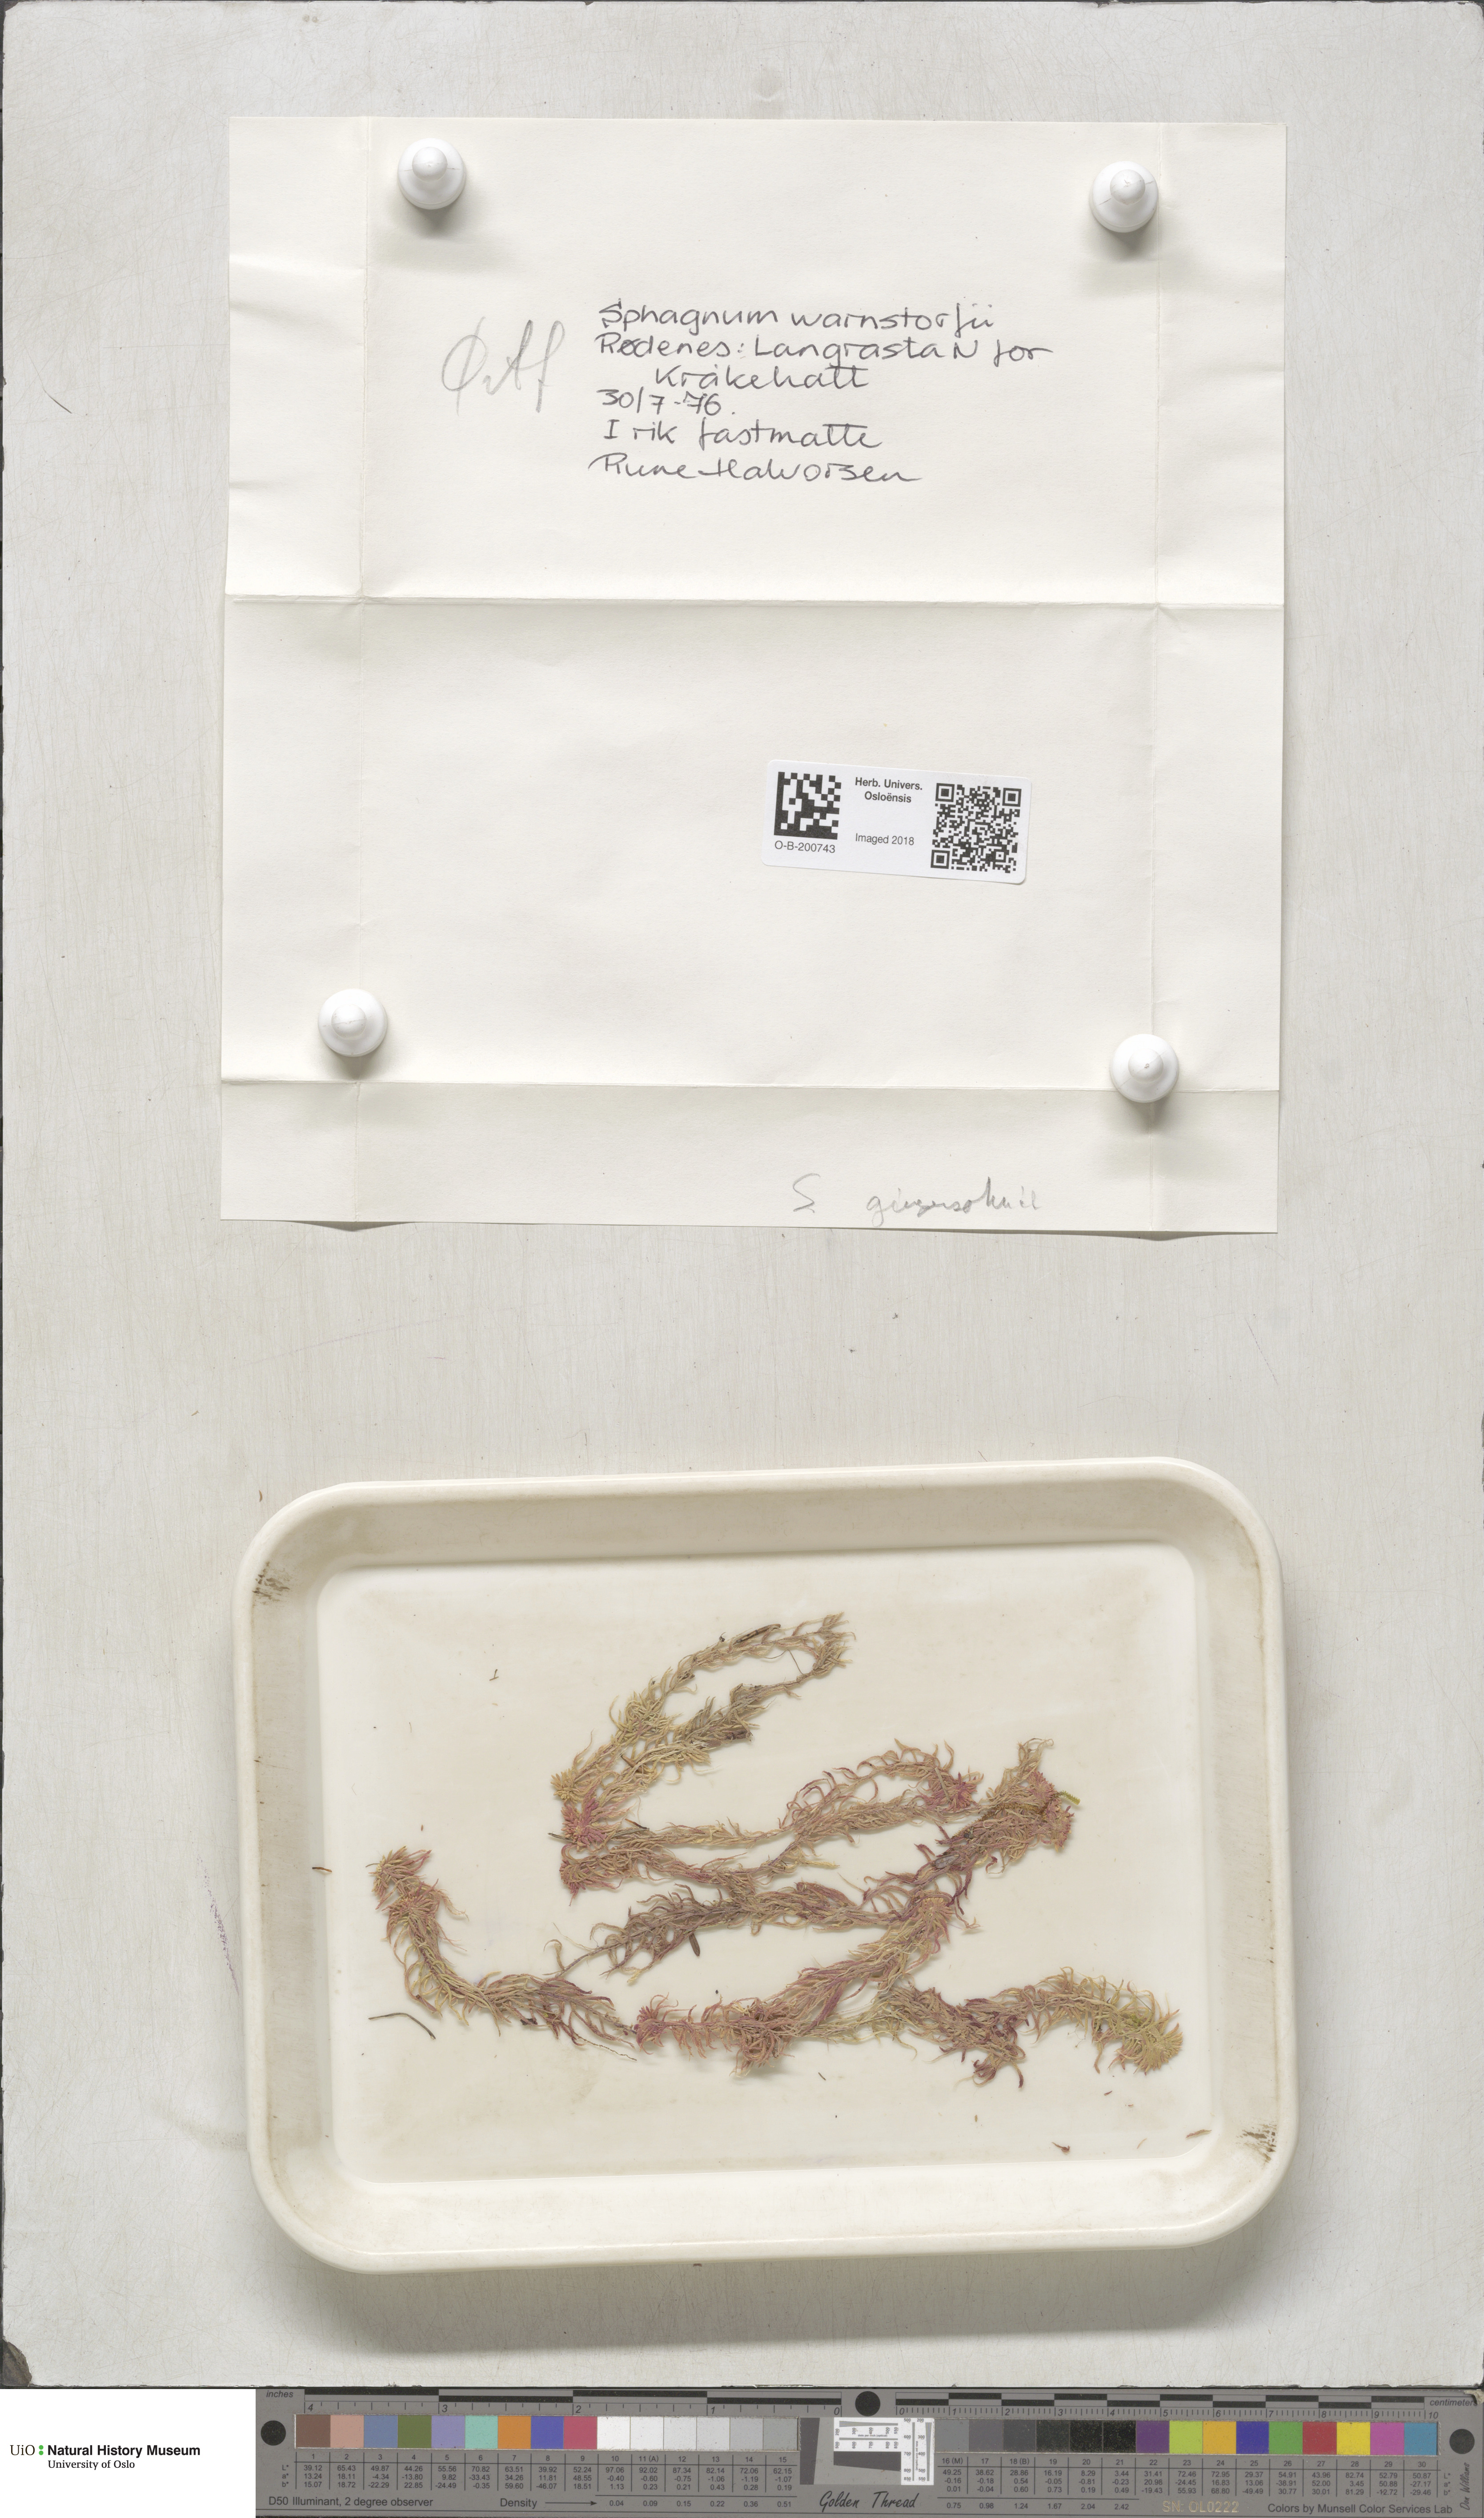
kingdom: Plantae
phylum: Bryophyta
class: Sphagnopsida
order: Sphagnales
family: Sphagnaceae
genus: Sphagnum
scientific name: Sphagnum girgensohnii
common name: Girgensohn's peat moss
